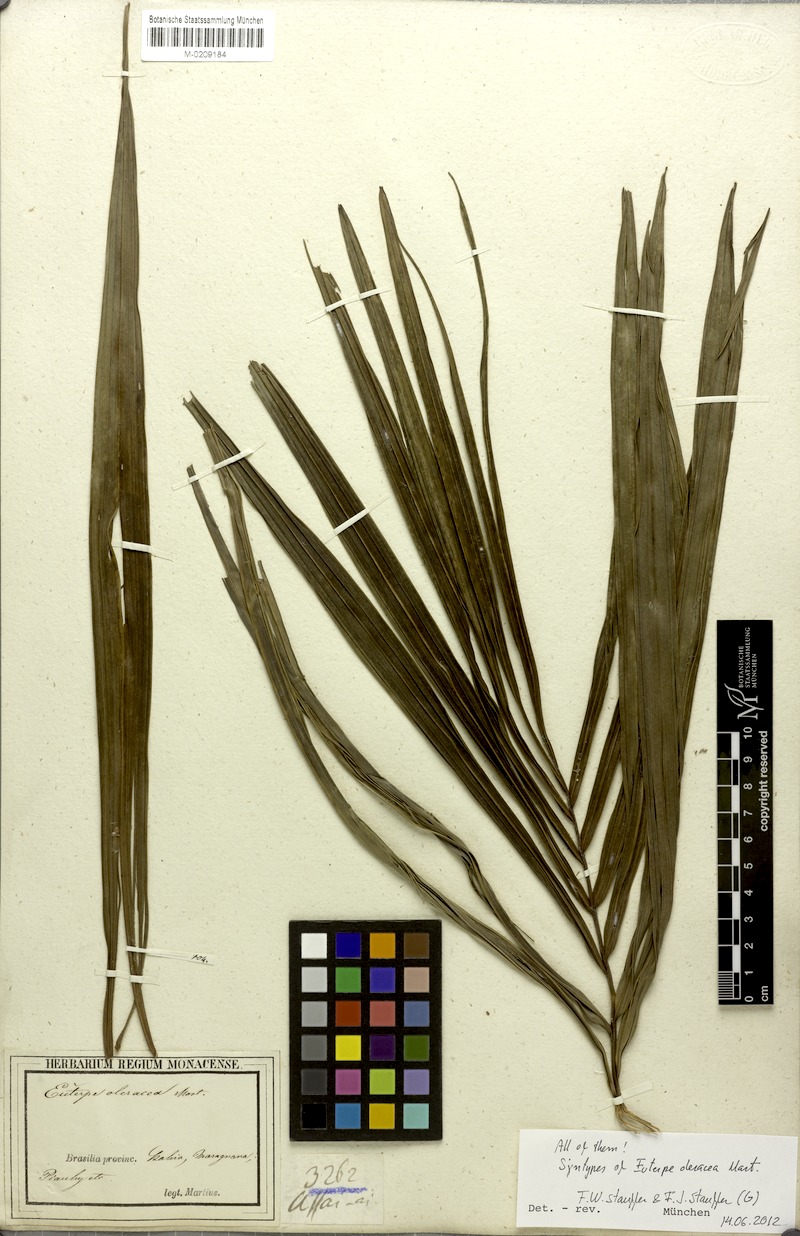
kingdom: Plantae
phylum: Tracheophyta
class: Liliopsida
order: Arecales
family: Arecaceae
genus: Euterpe
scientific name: Euterpe oleracea
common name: Assai palm
